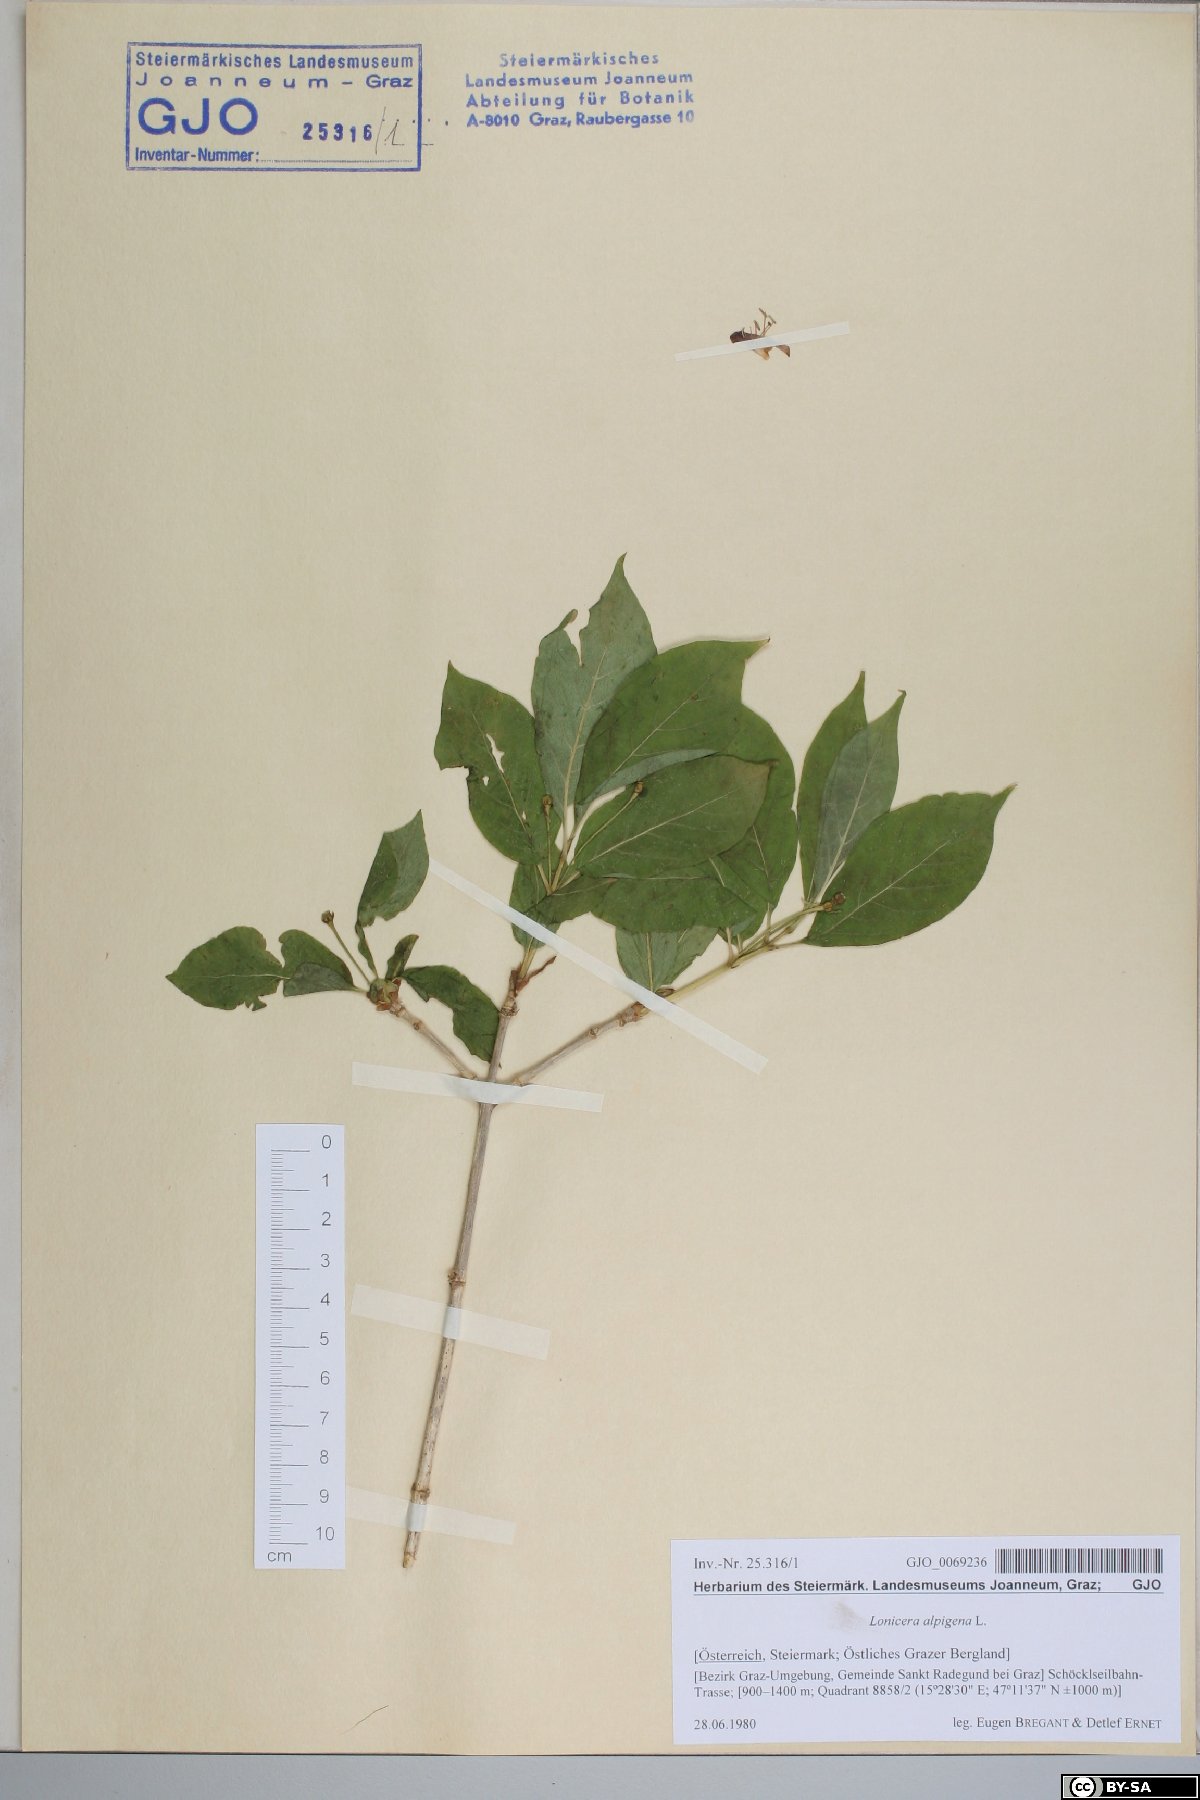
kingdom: Plantae
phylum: Tracheophyta
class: Magnoliopsida
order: Dipsacales
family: Caprifoliaceae
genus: Lonicera
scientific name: Lonicera alpigena
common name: Alpine honeysuckle
